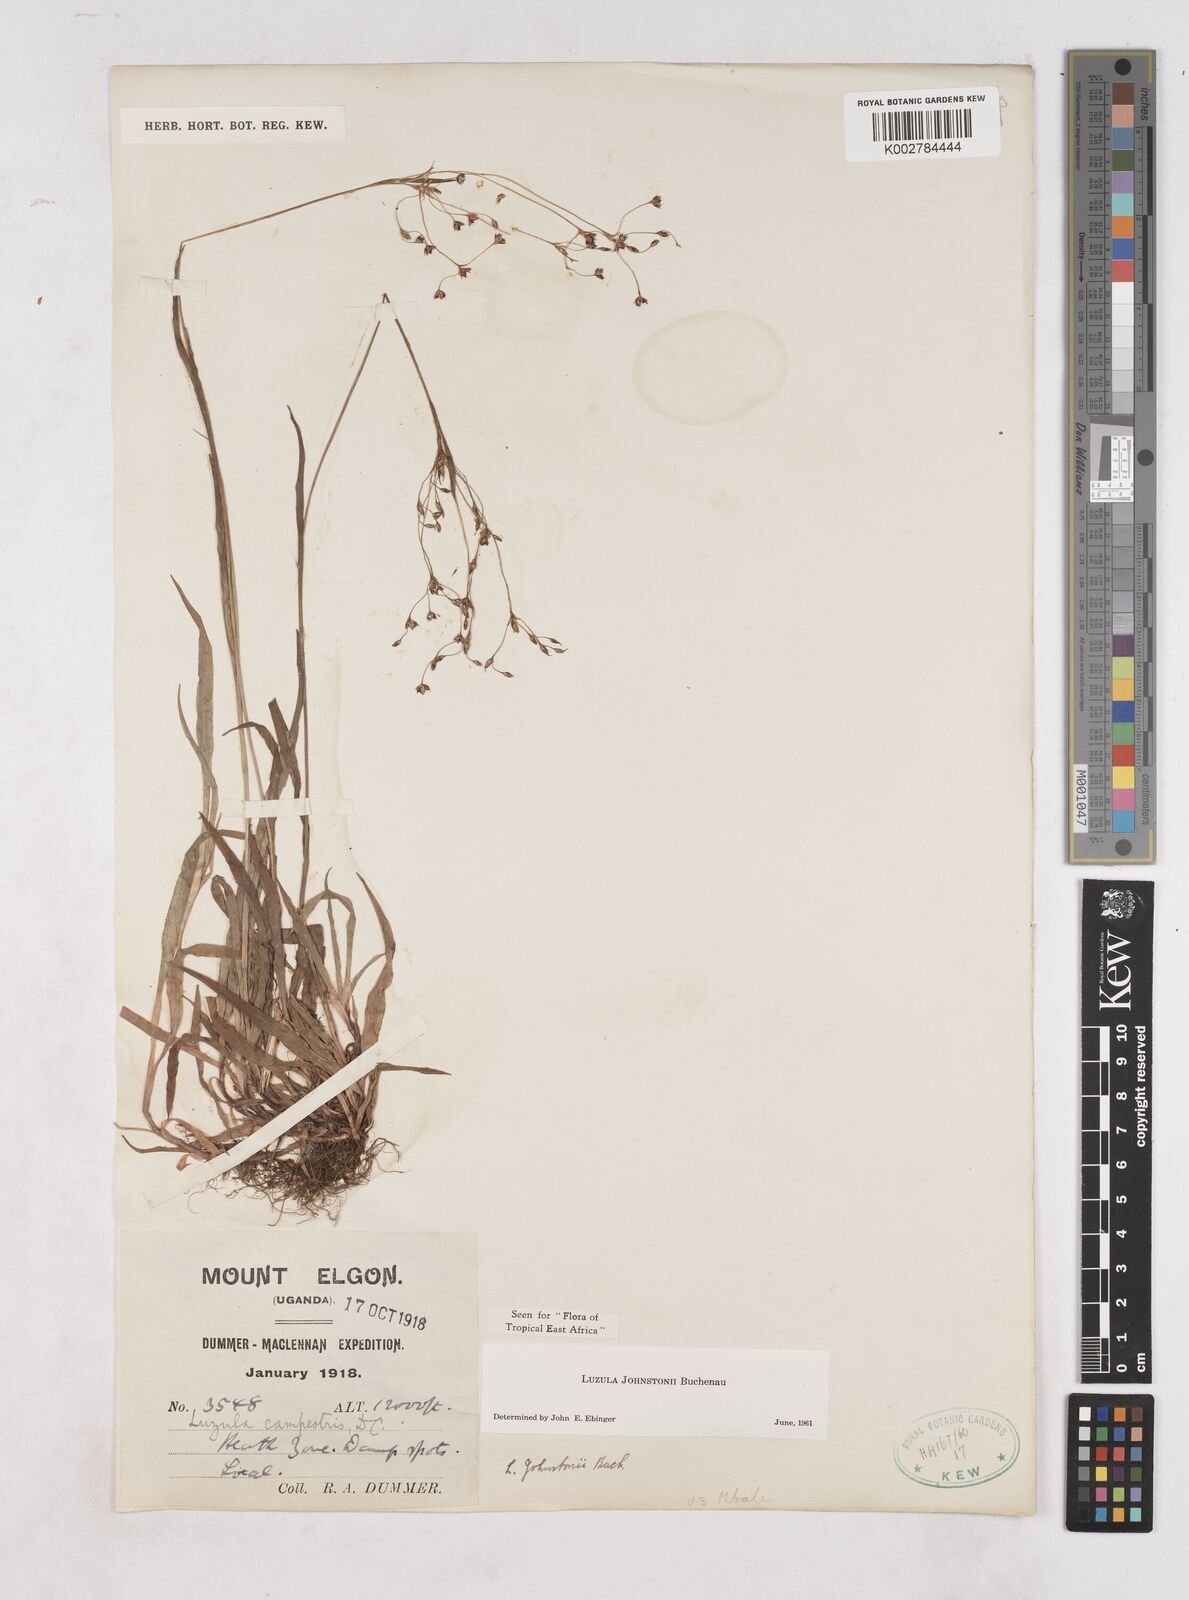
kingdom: Plantae
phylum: Tracheophyta
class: Liliopsida
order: Poales
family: Juncaceae
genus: Luzula
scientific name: Luzula johnstonii
